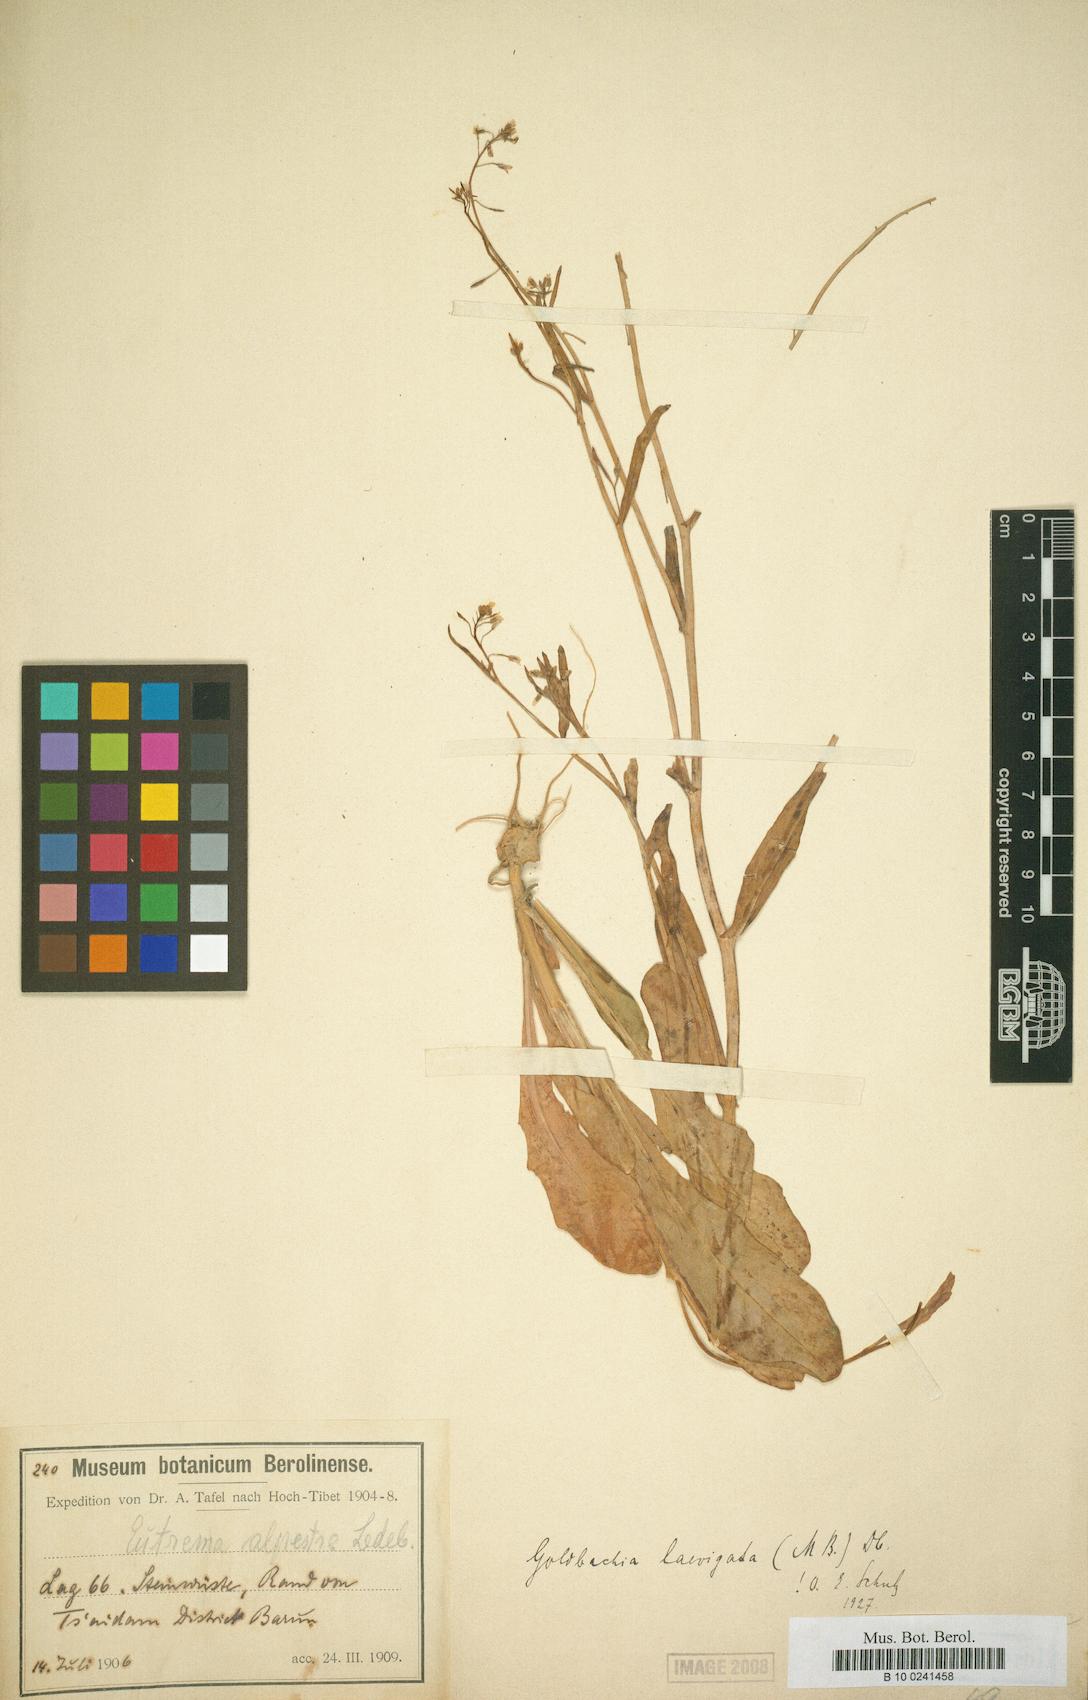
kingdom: Plantae
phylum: Tracheophyta
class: Magnoliopsida
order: Brassicales
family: Brassicaceae
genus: Goldbachia
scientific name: Goldbachia laevigata
